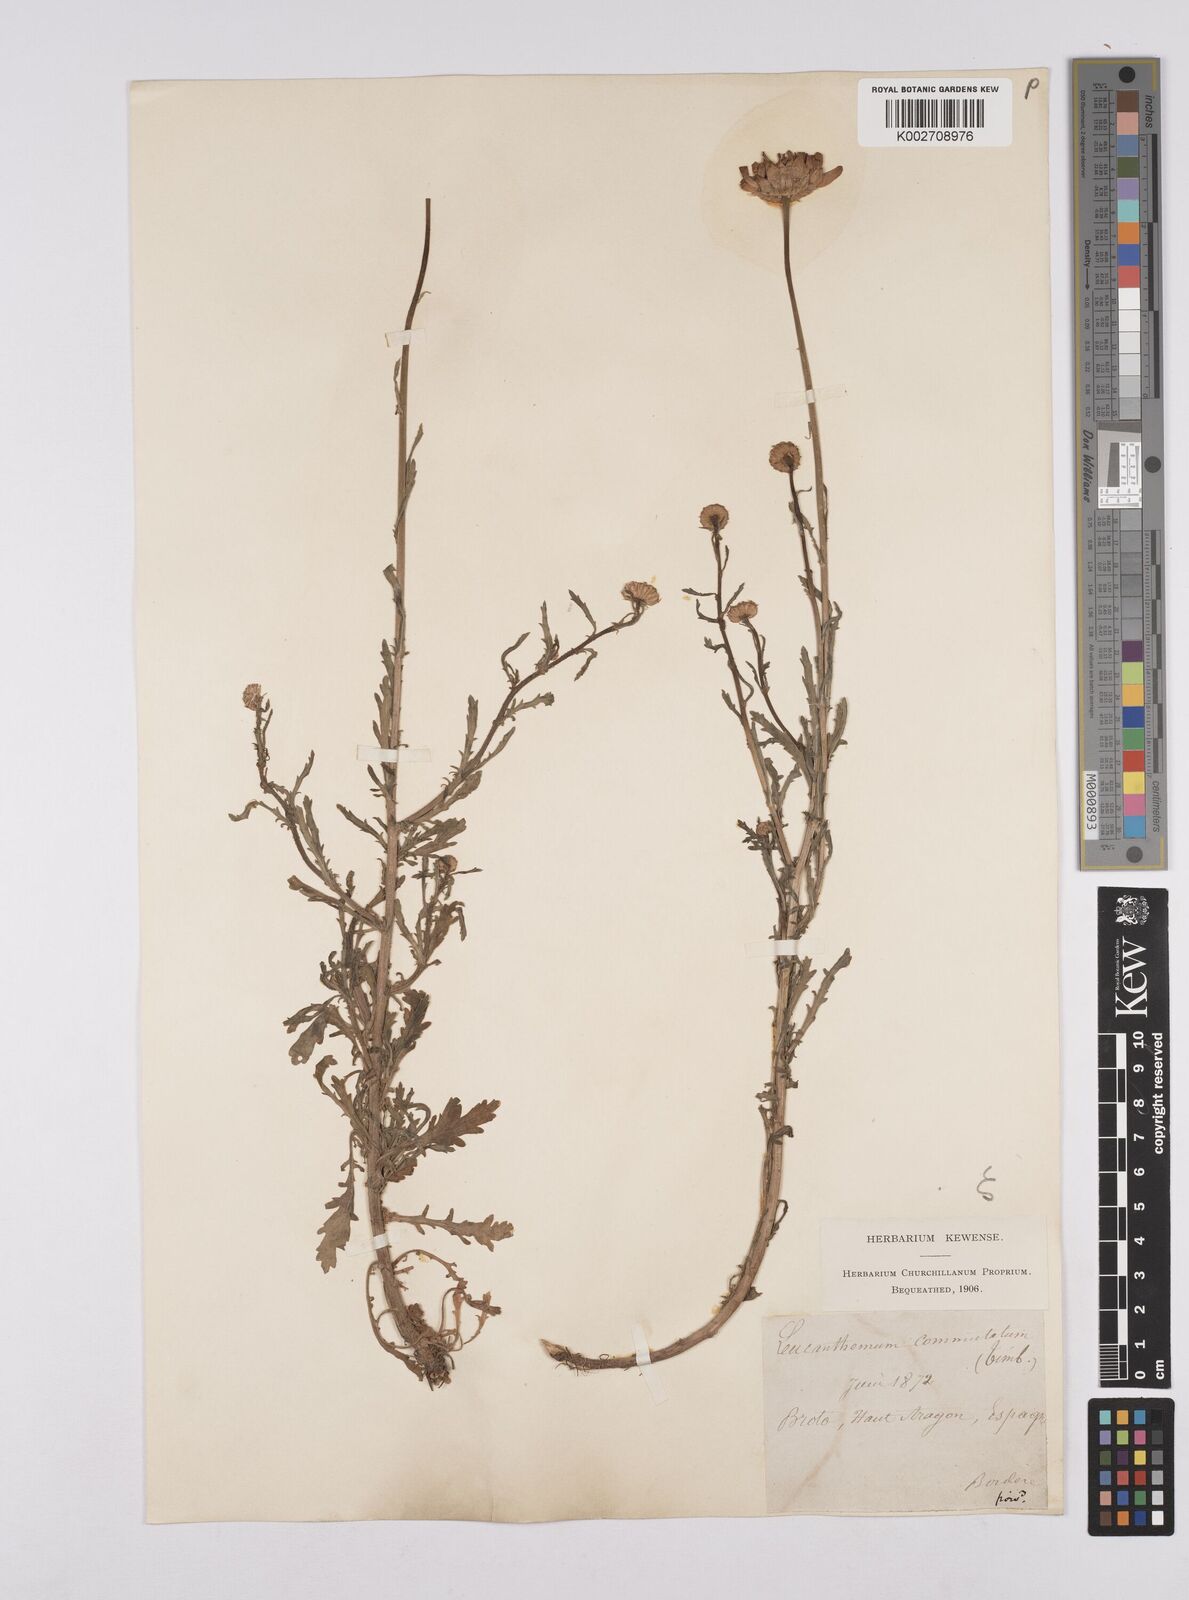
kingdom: Plantae
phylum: Tracheophyta
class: Magnoliopsida
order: Asterales
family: Asteraceae
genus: Leucanthemum
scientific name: Leucanthemum vulgare
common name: Oxeye daisy
